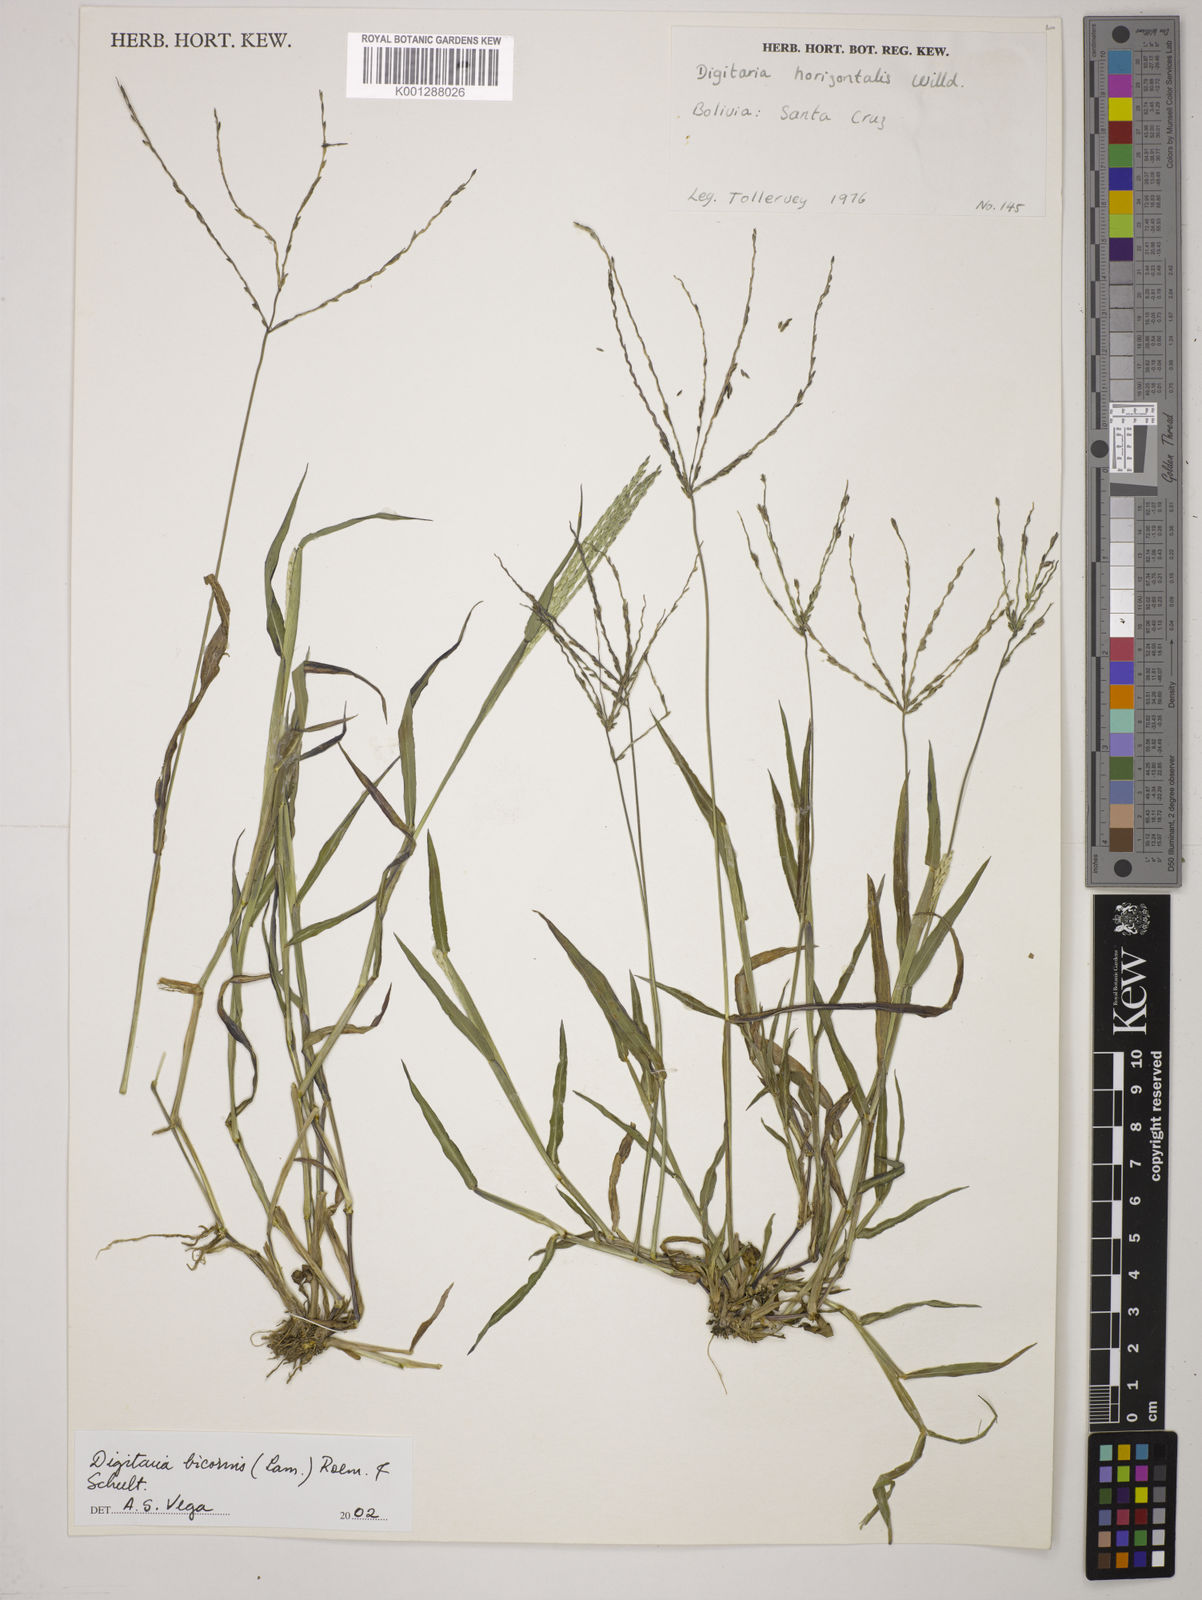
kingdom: Plantae
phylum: Tracheophyta
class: Liliopsida
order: Poales
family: Poaceae
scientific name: Poaceae
